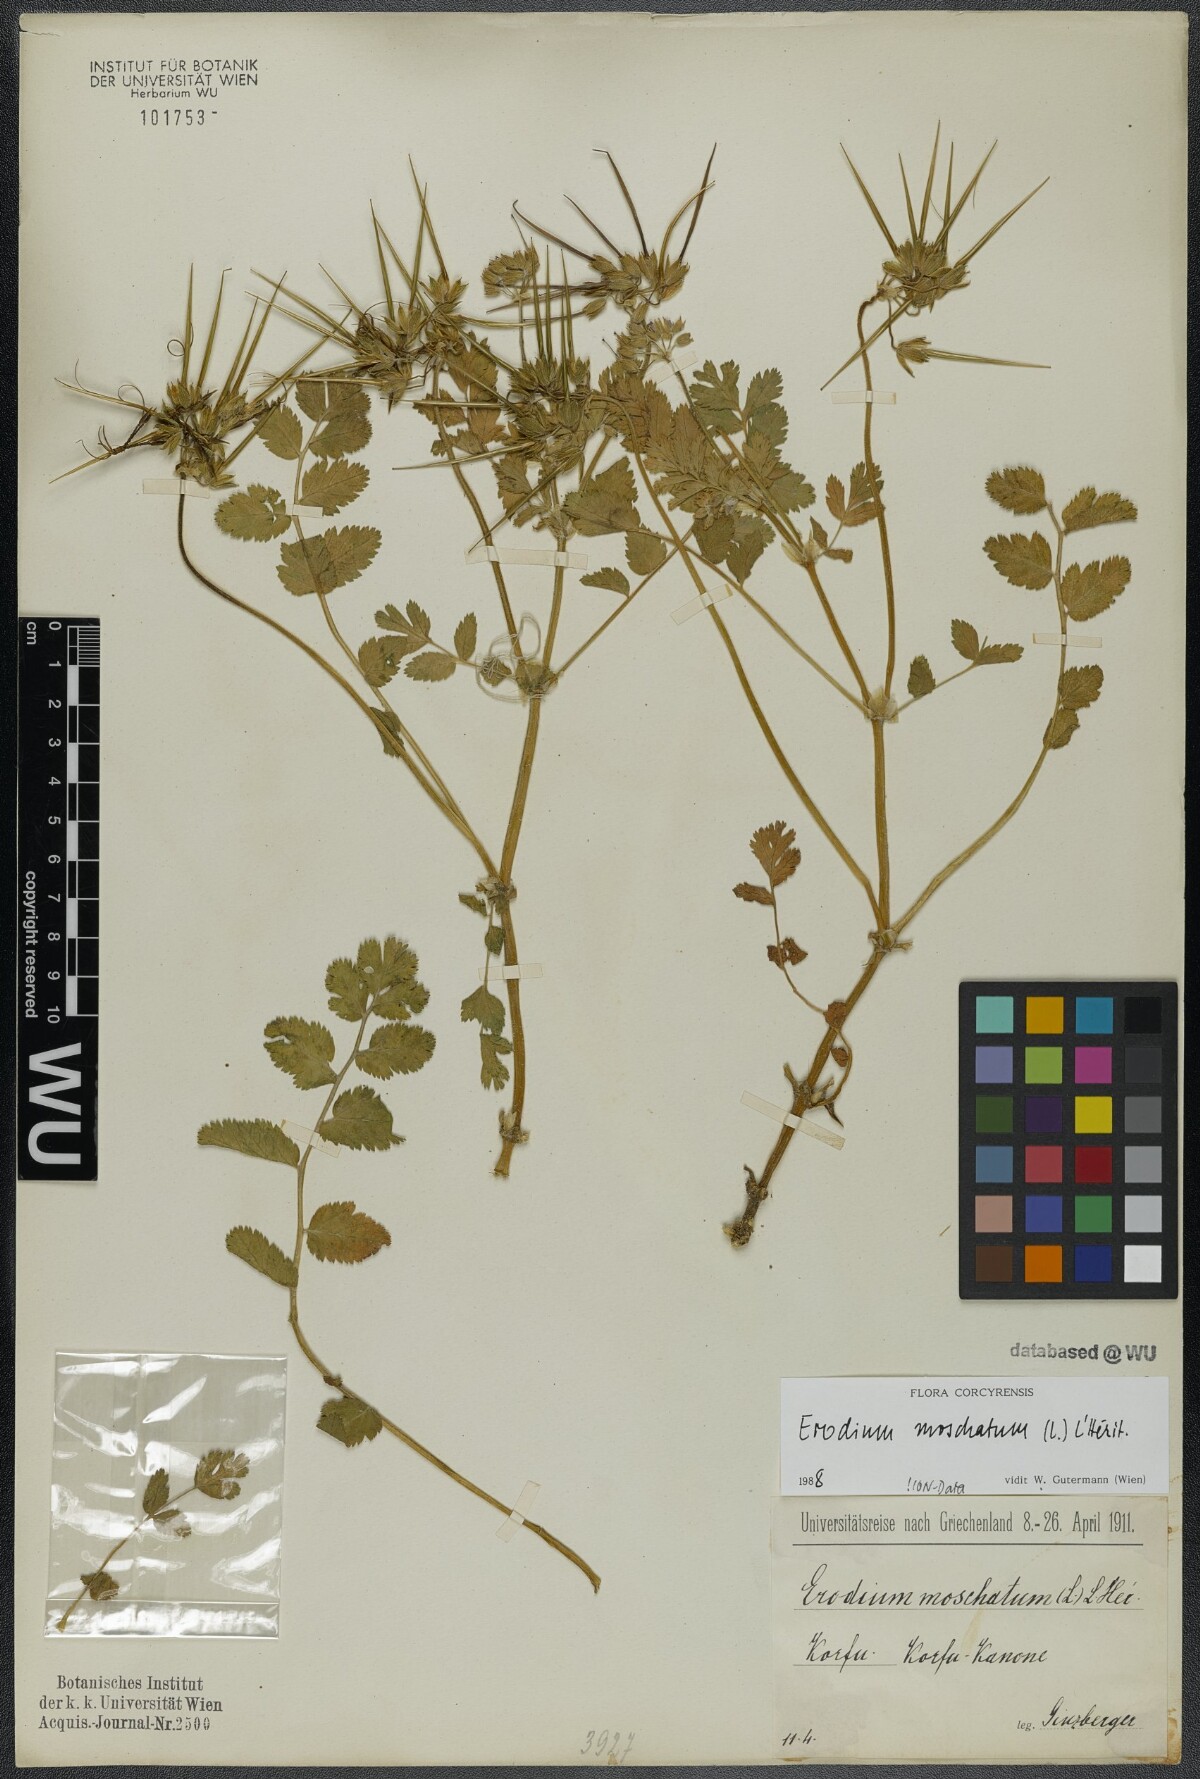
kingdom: Plantae
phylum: Tracheophyta
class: Magnoliopsida
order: Geraniales
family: Geraniaceae
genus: Erodium
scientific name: Erodium moschatum
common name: Musk stork's-bill
